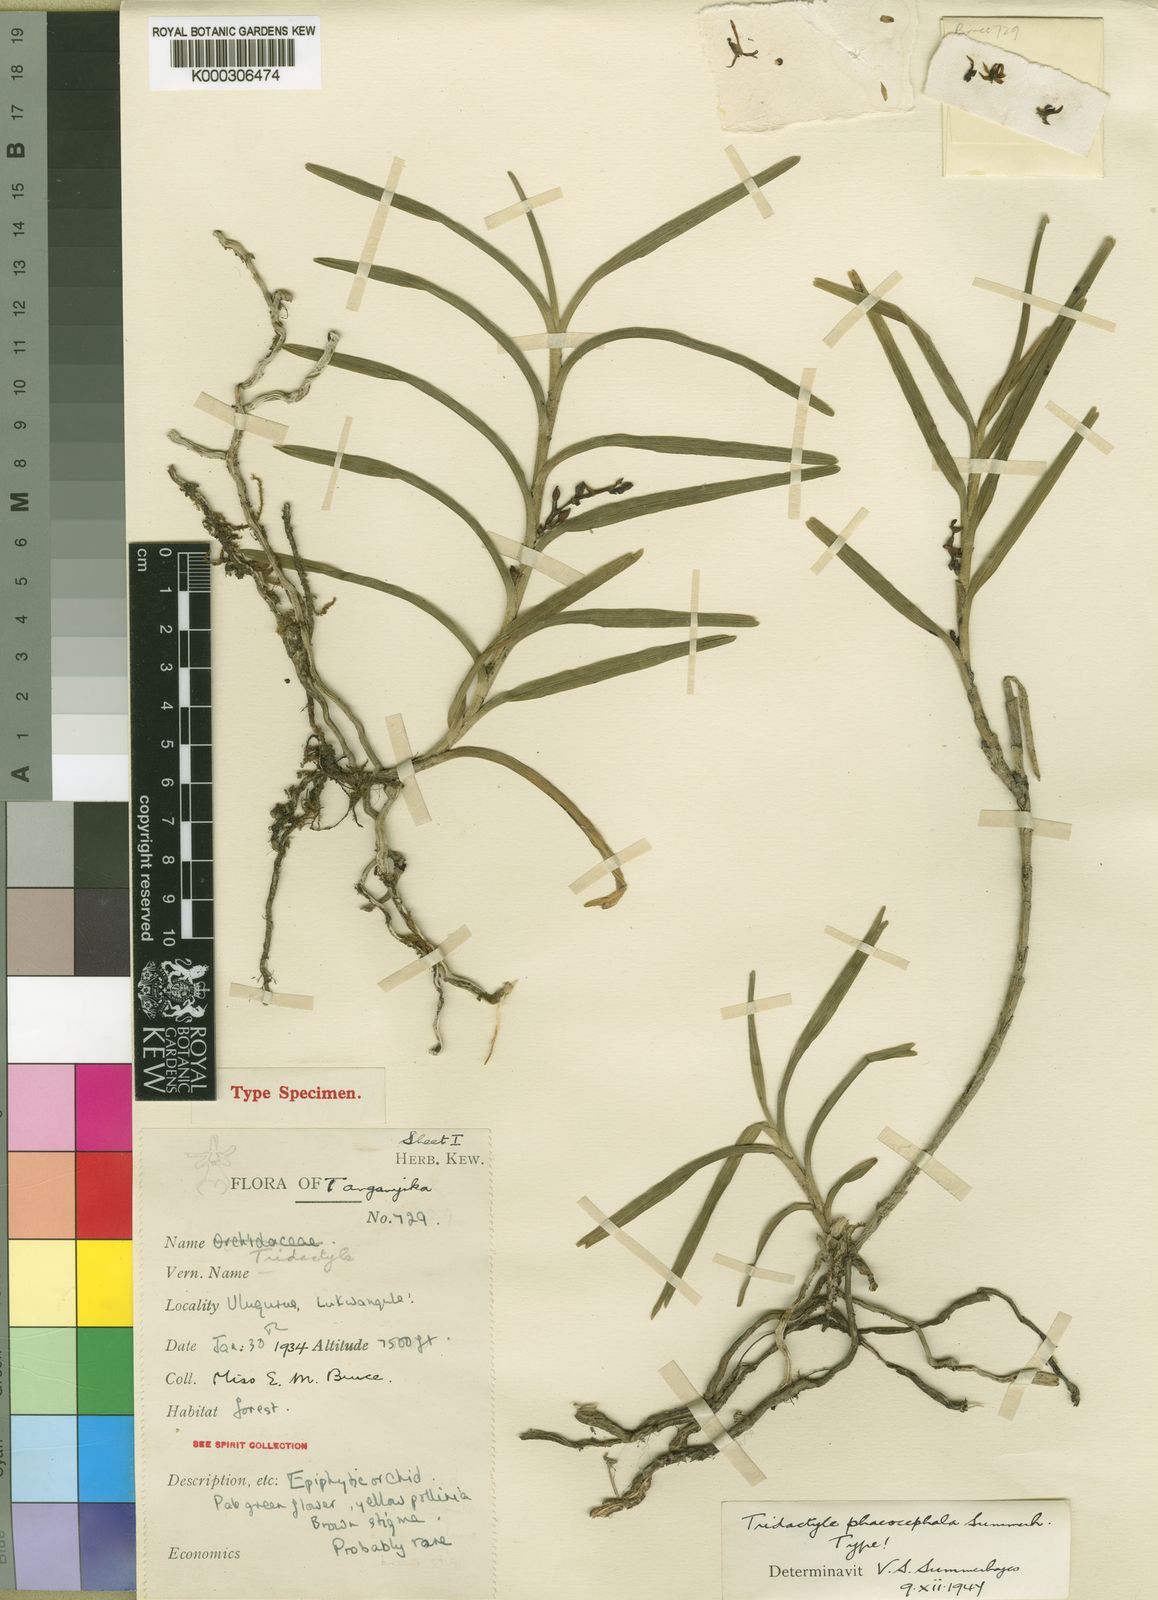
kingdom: Plantae
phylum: Tracheophyta
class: Liliopsida
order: Asparagales
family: Orchidaceae
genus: Tridactyle
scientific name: Tridactyle phaeocephala
